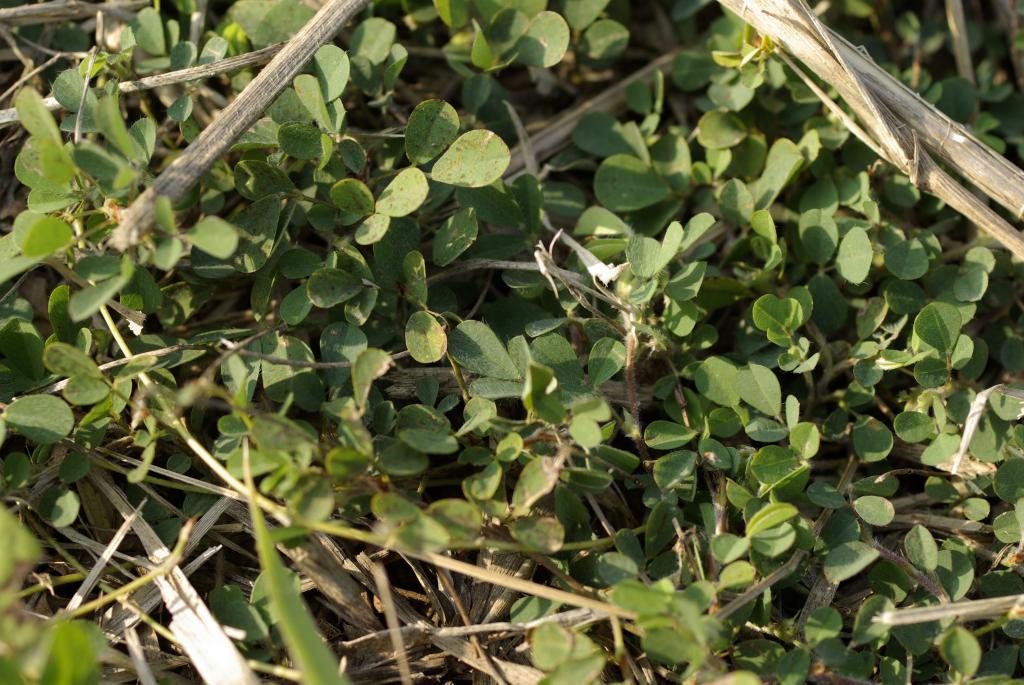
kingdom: Plantae
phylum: Tracheophyta
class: Magnoliopsida
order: Fabales
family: Fabaceae
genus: Grona
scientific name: Grona triflora
